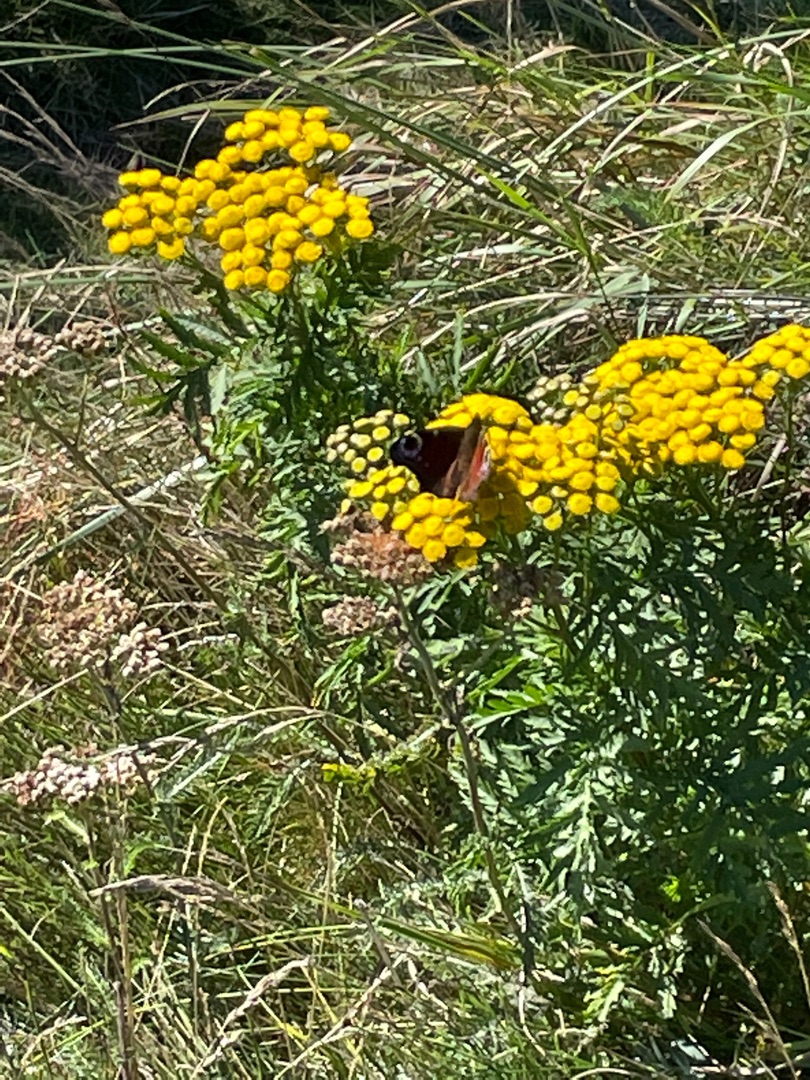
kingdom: Animalia
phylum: Arthropoda
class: Insecta
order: Lepidoptera
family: Nymphalidae
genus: Aglais
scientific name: Aglais io
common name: Dagpåfugleøje
